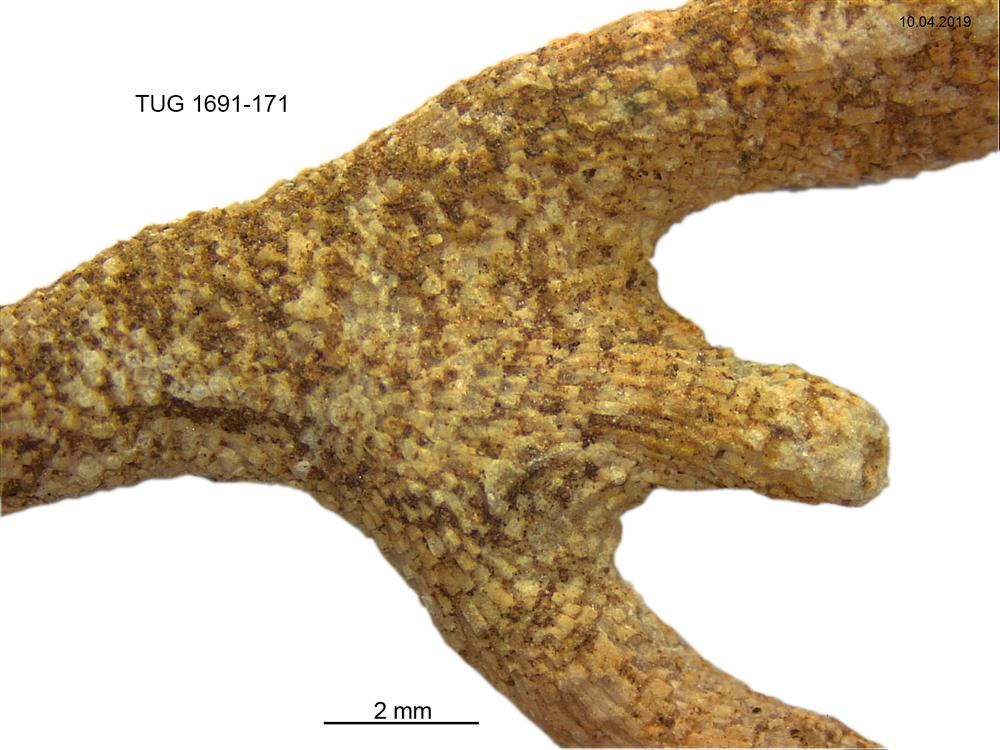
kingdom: Animalia
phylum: Bryozoa
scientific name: Bryozoa
